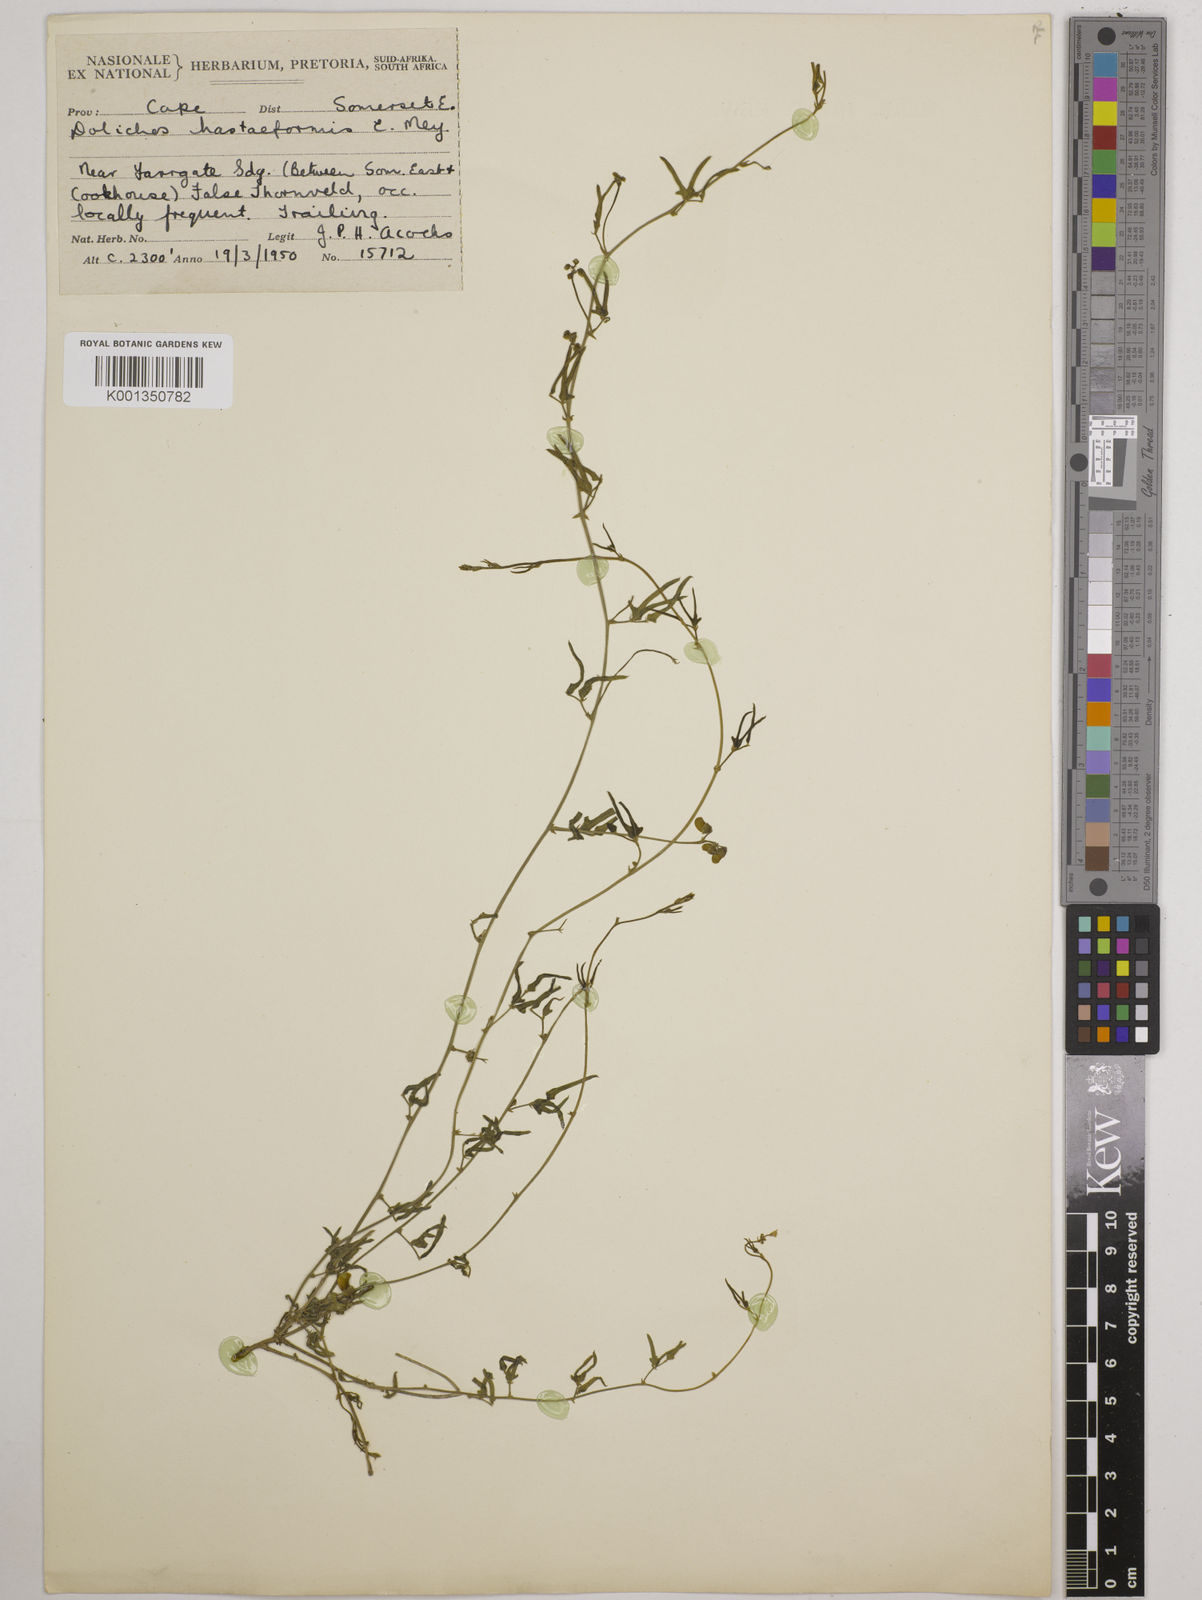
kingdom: Plantae
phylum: Tracheophyta
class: Magnoliopsida
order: Fabales
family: Fabaceae
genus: Dolichos
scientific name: Dolichos
